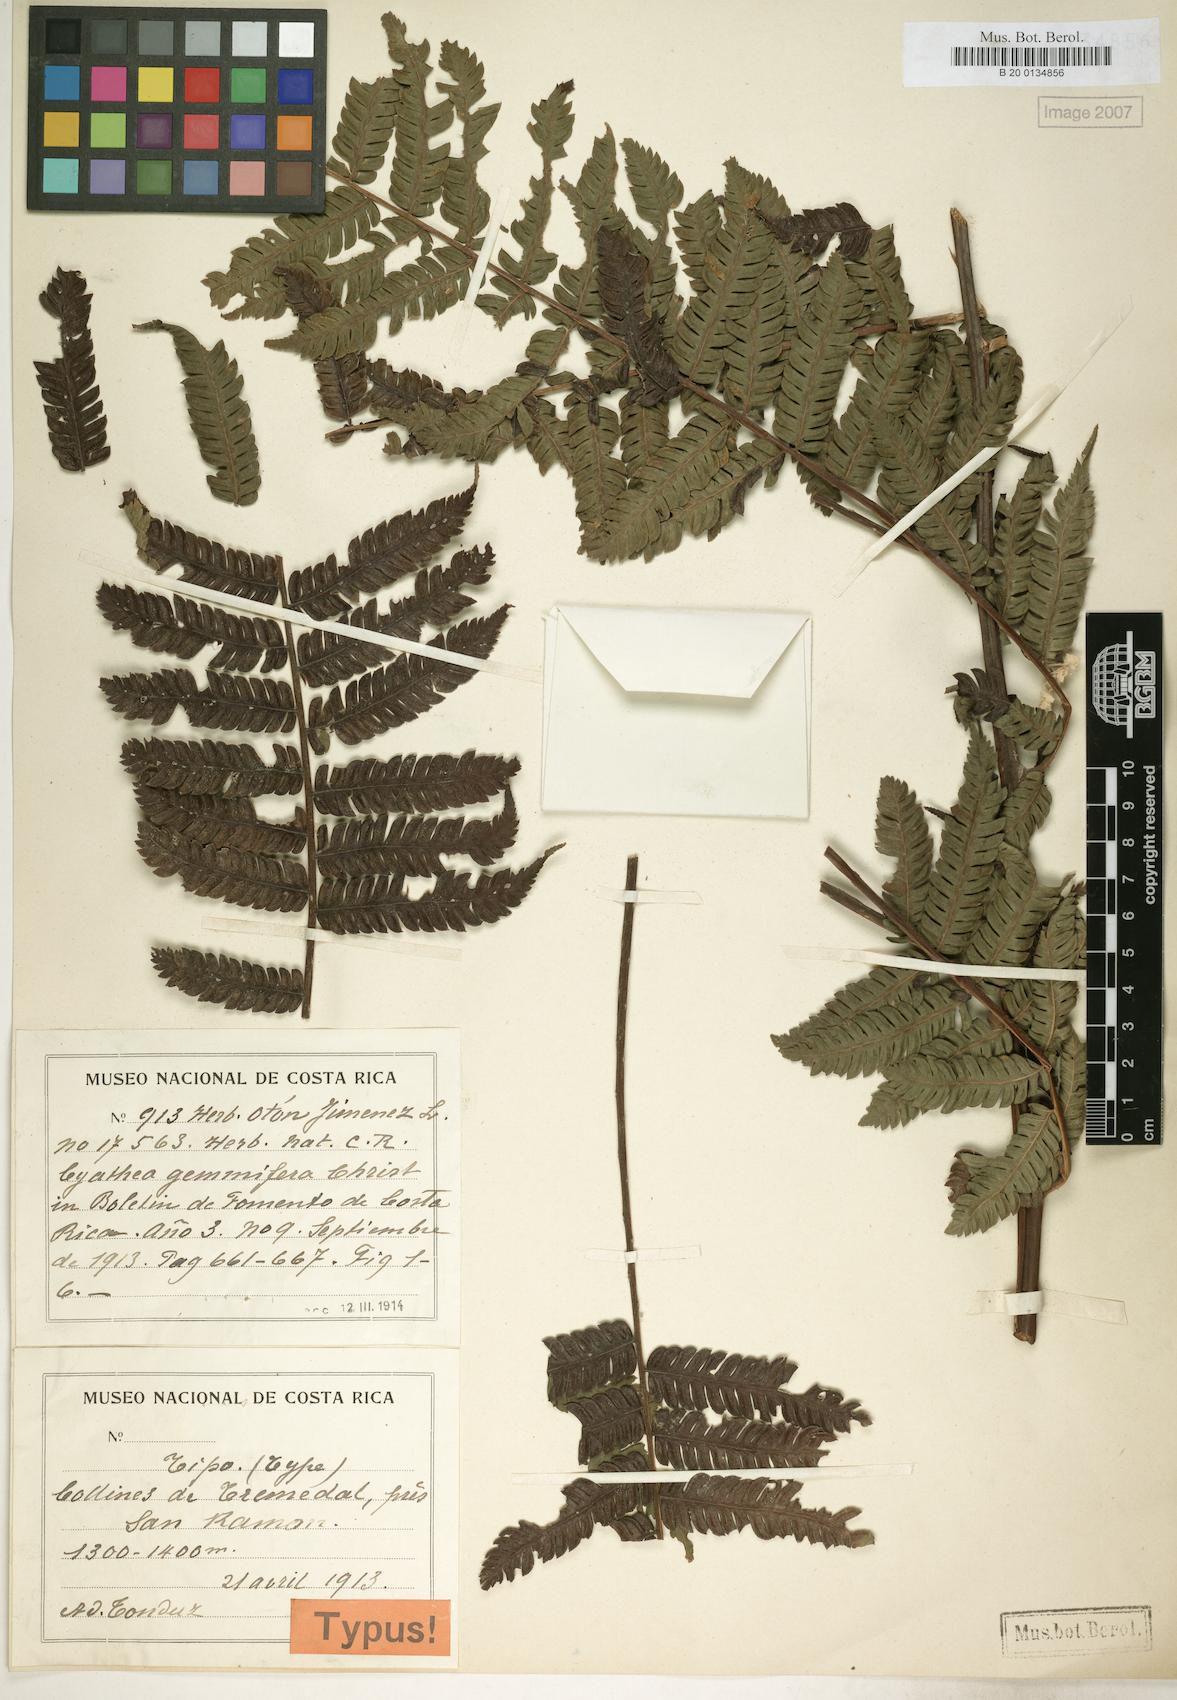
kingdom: Plantae
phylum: Tracheophyta
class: Polypodiopsida
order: Cyatheales
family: Cyatheaceae
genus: Alsophila
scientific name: Alsophila firma
